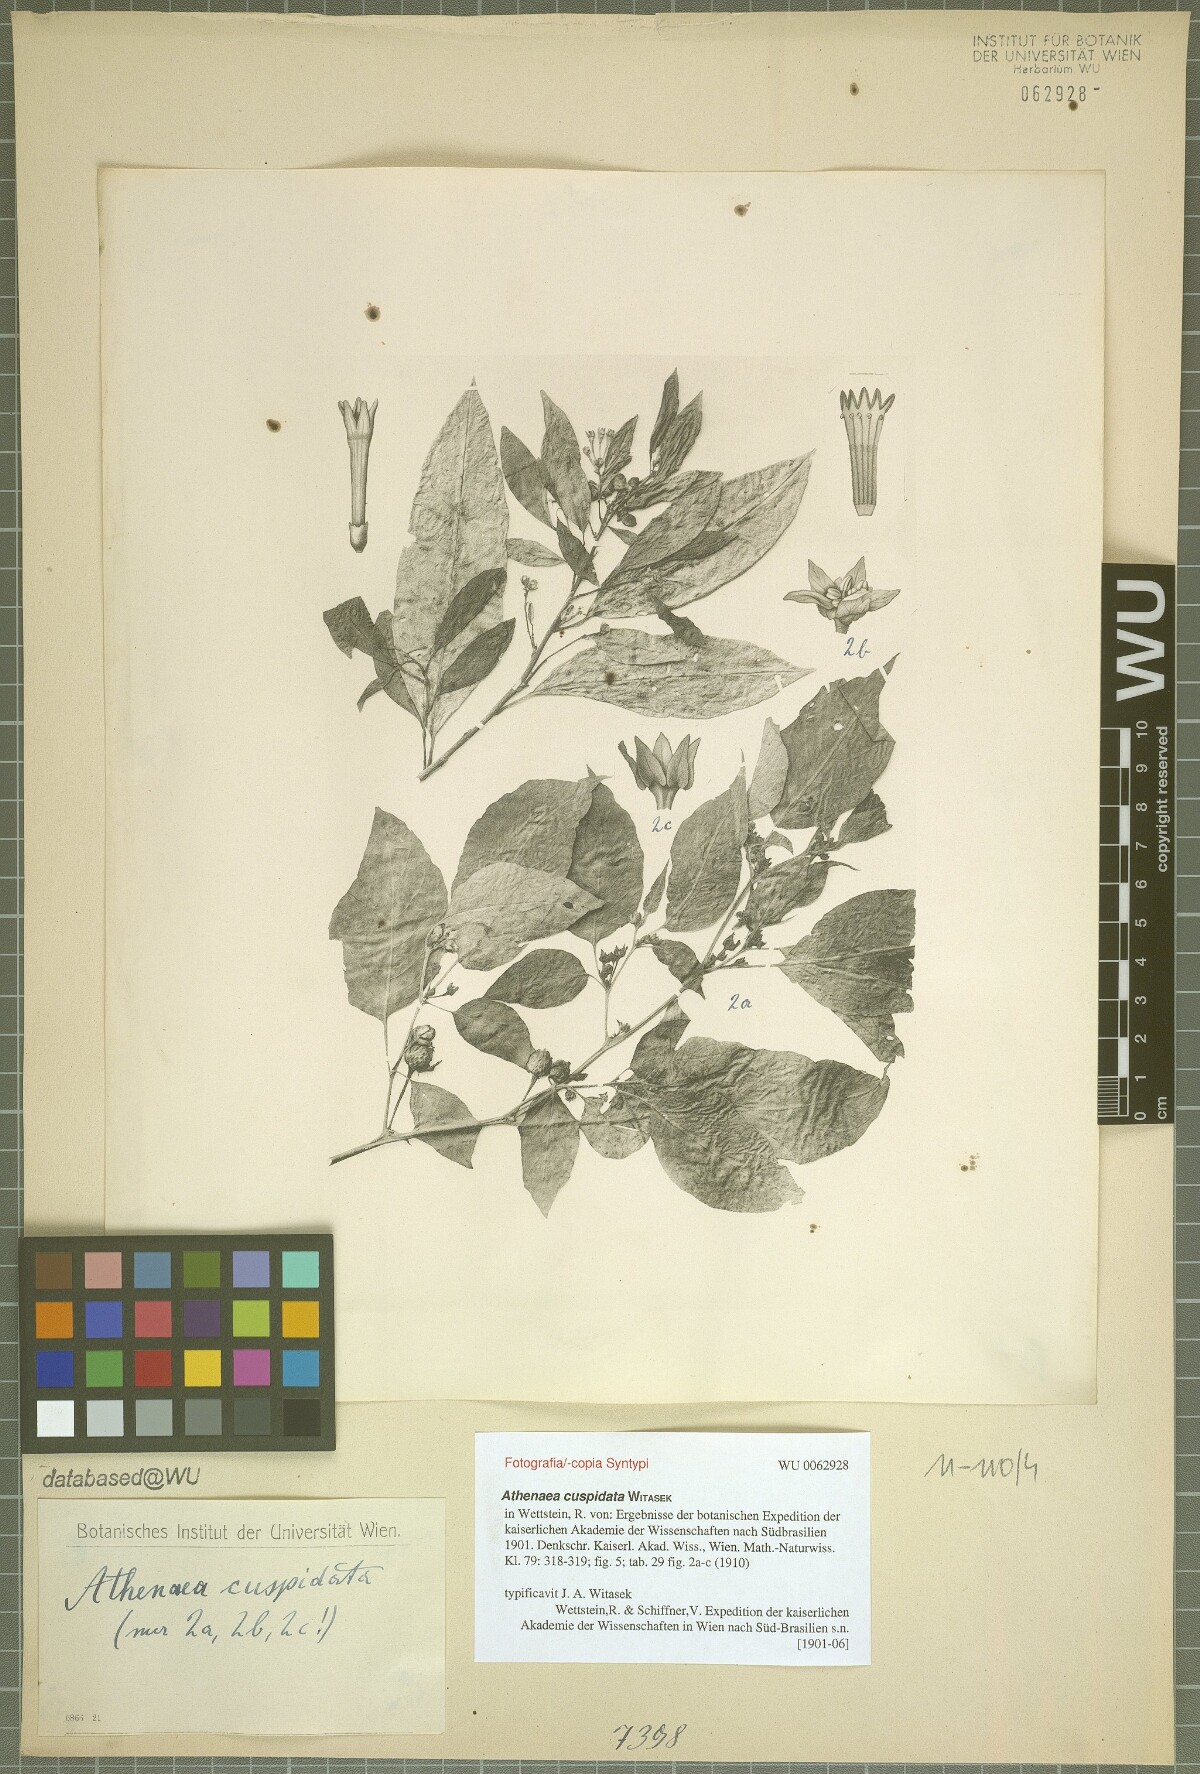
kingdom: Plantae
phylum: Tracheophyta
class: Magnoliopsida
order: Solanales
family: Solanaceae
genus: Athenaea
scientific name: Athenaea cuspidata
